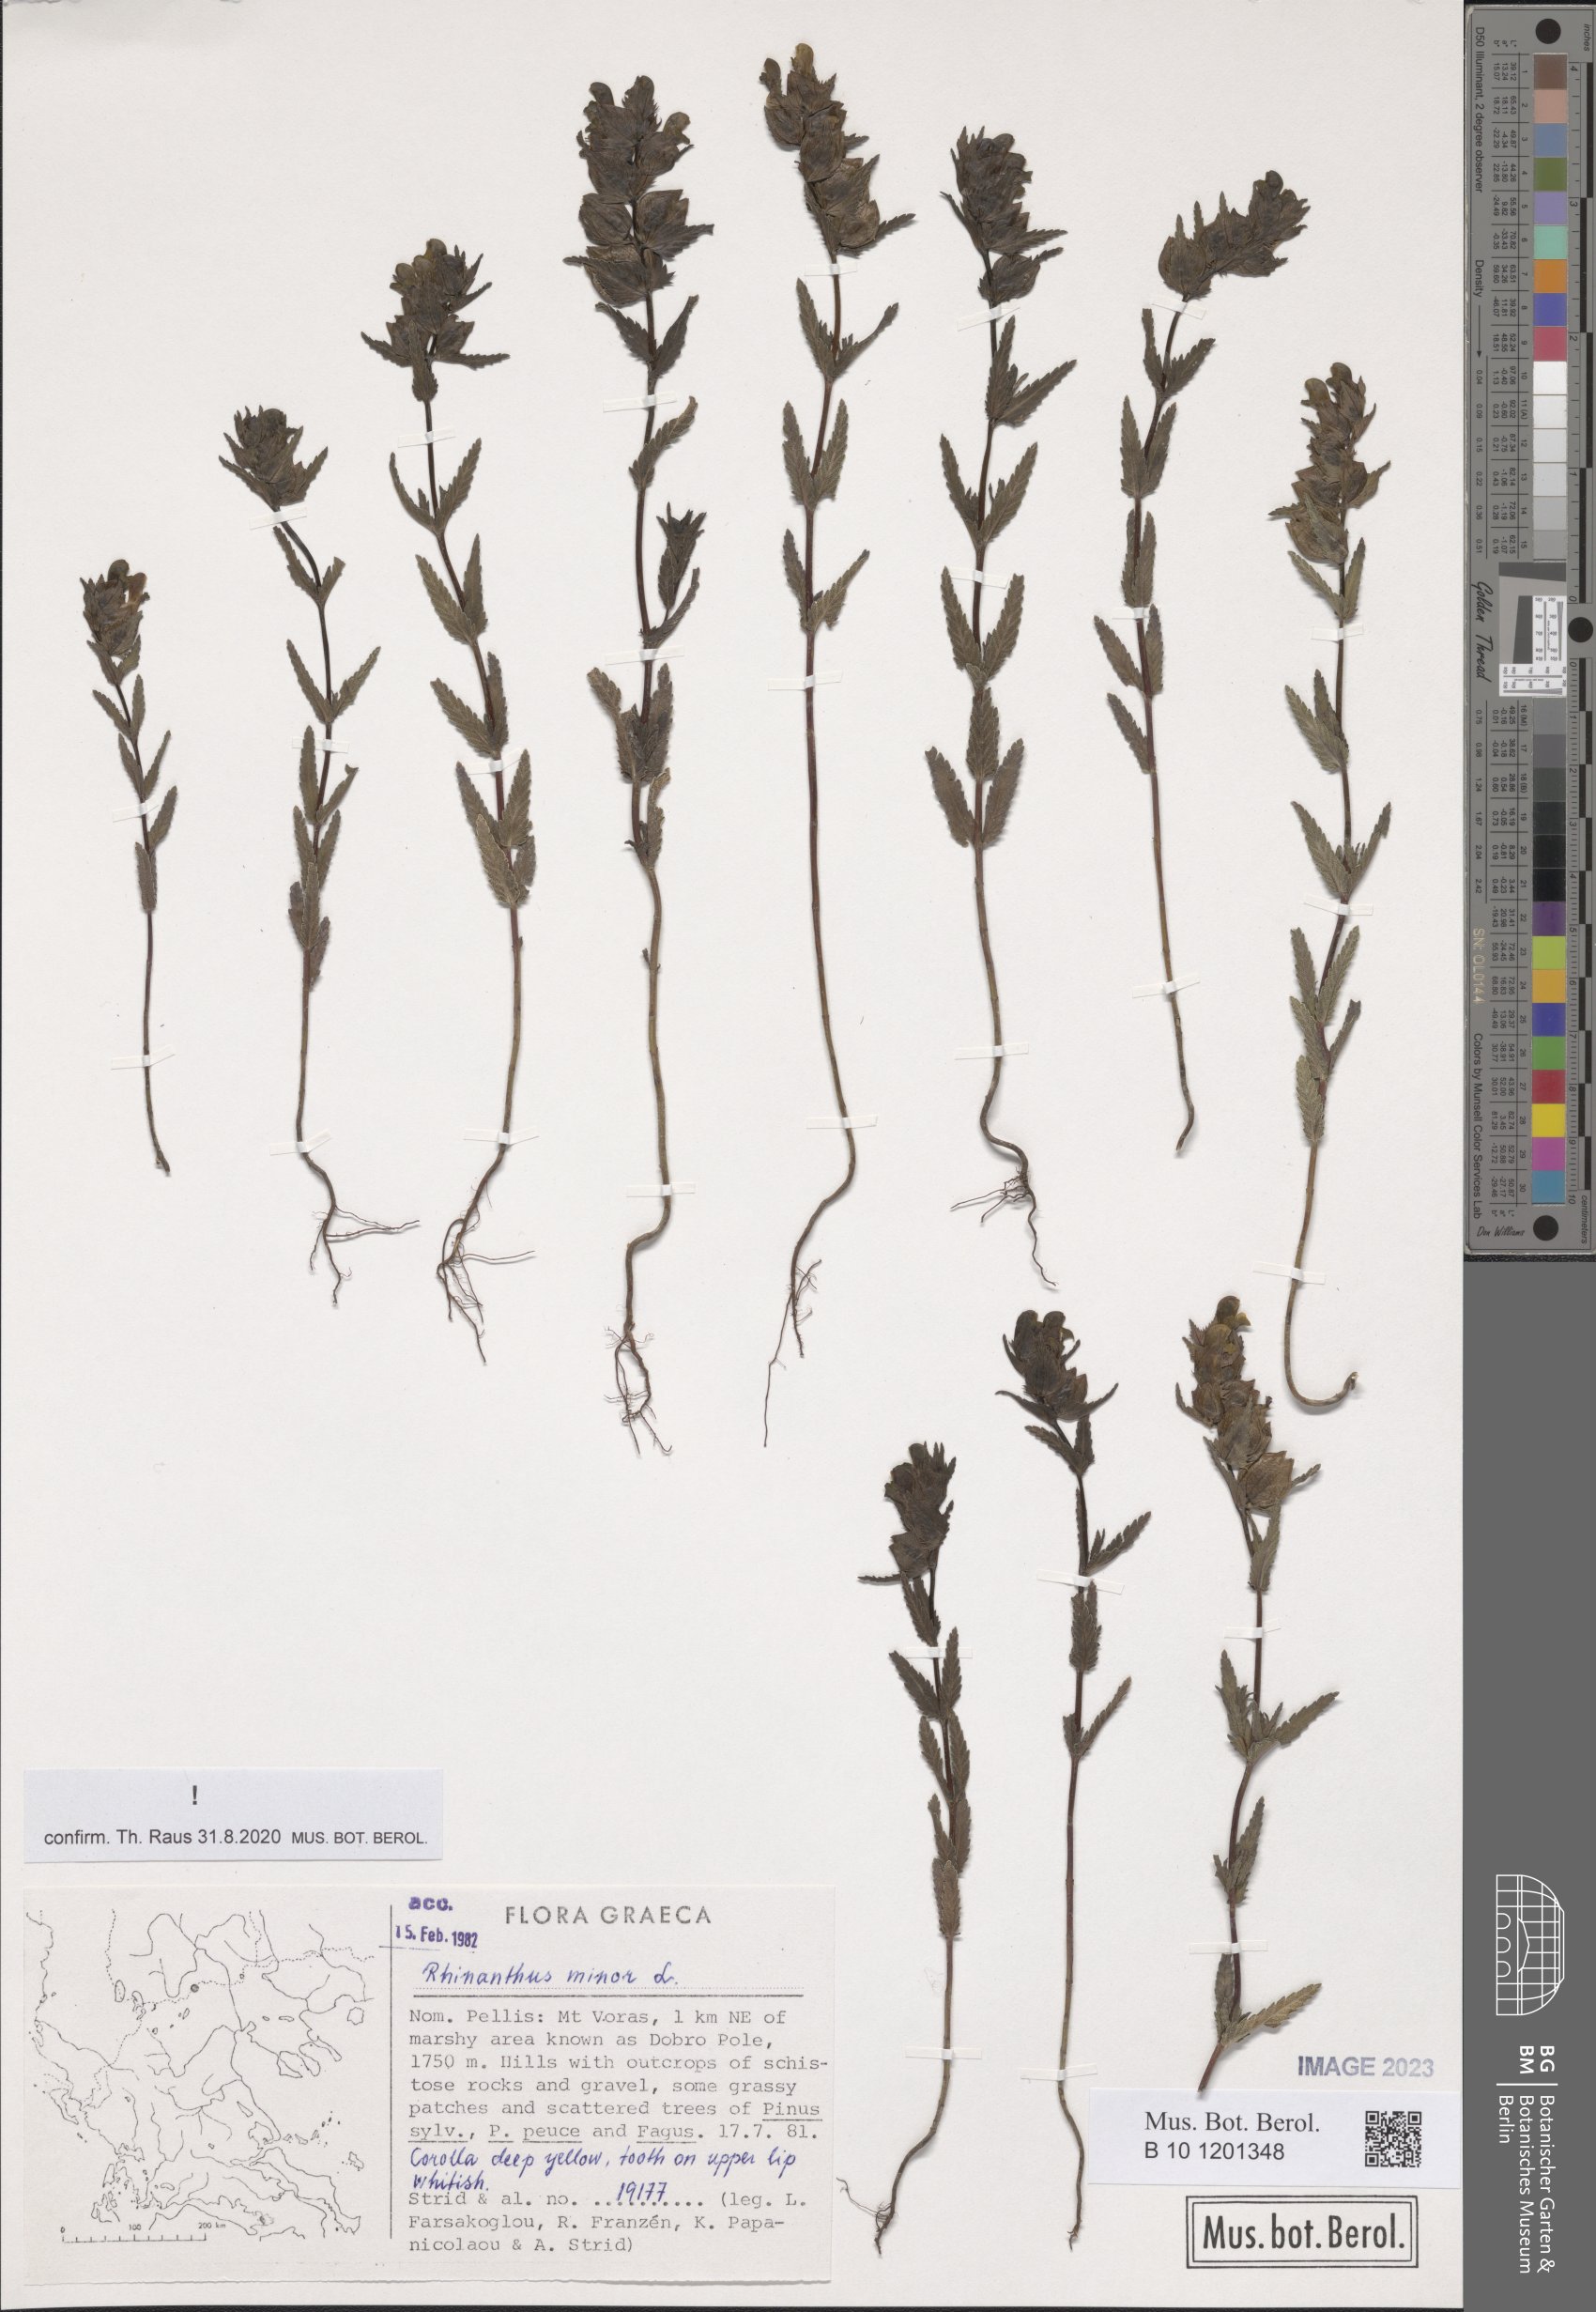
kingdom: Plantae
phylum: Tracheophyta
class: Magnoliopsida
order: Lamiales
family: Orobanchaceae
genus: Rhinanthus
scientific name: Rhinanthus minor
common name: Yellow-rattle
